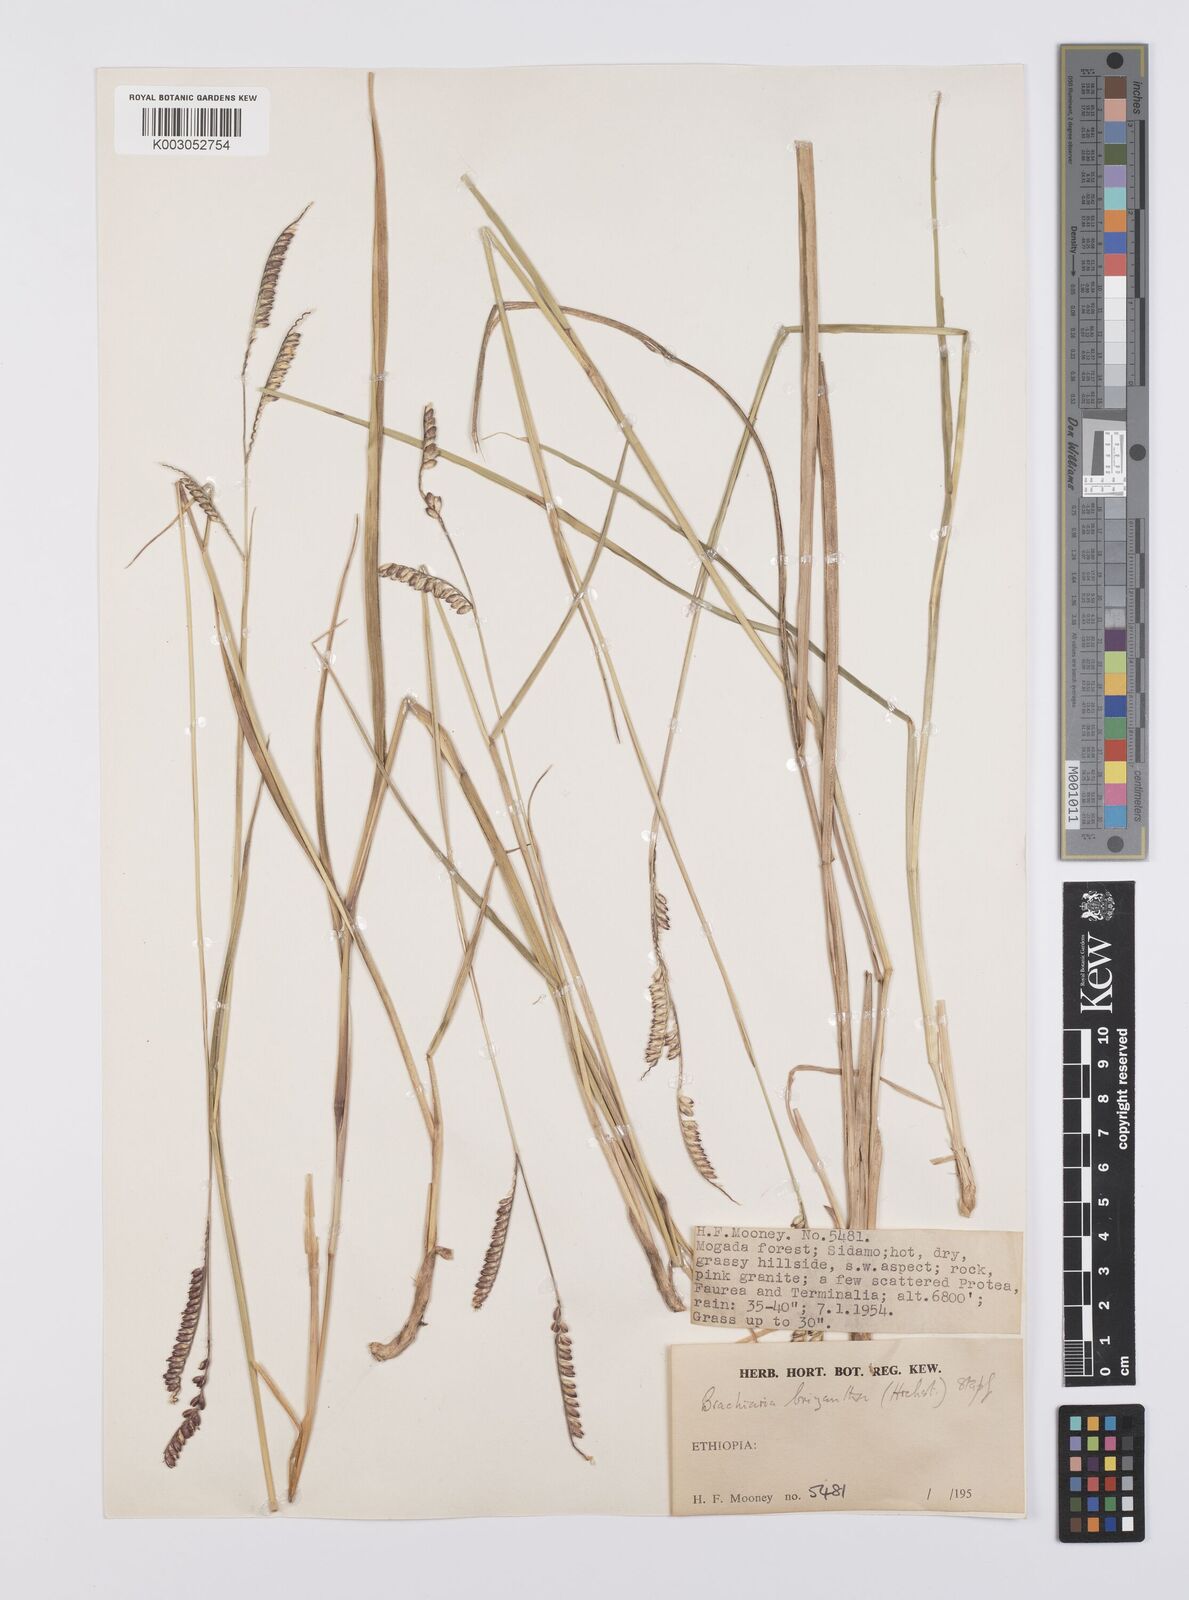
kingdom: Plantae
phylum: Tracheophyta
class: Liliopsida
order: Poales
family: Poaceae
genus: Urochloa
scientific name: Urochloa brizantha
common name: Palisade signalgrass
